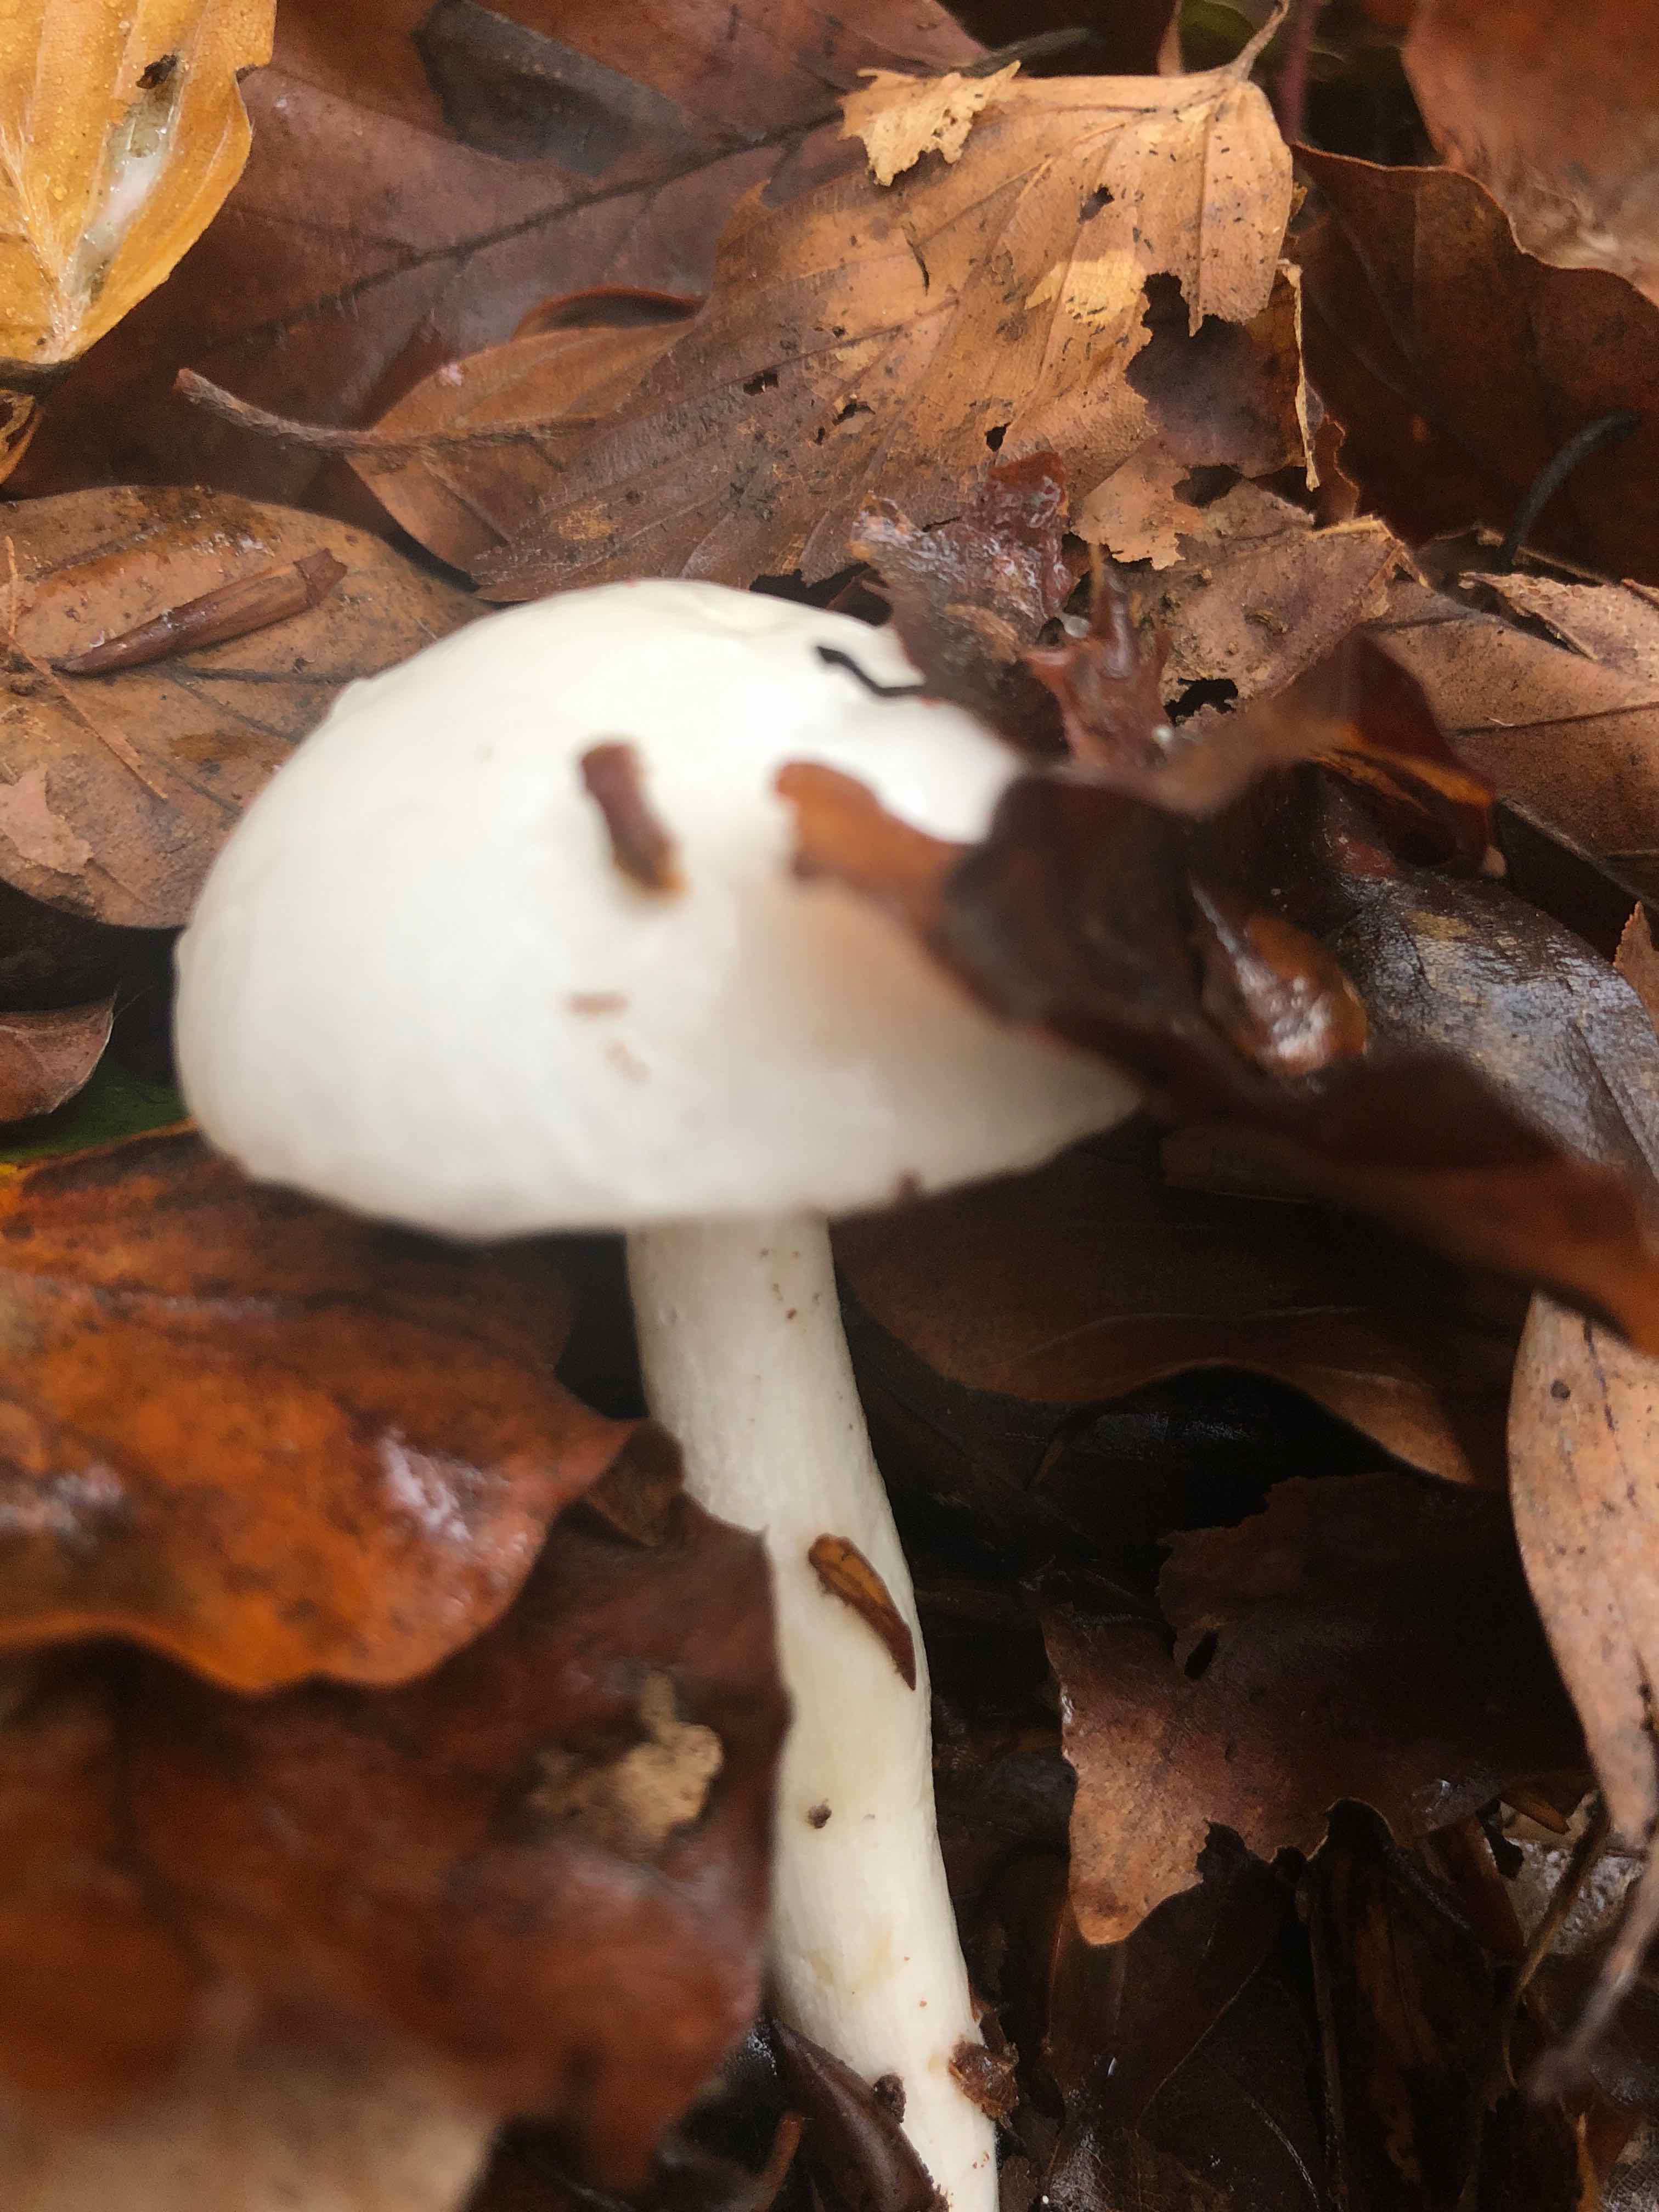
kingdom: Fungi
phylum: Basidiomycota
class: Agaricomycetes
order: Agaricales
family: Hygrophoraceae
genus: Hygrophorus
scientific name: Hygrophorus
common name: sneglehat
